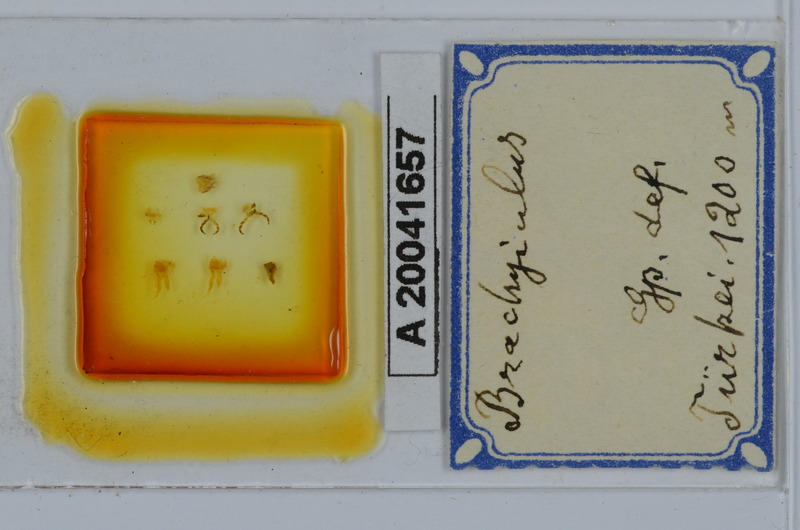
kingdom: Animalia
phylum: Arthropoda
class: Diplopoda
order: Julida
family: Julidae
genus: Brachyiulus
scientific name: Brachyiulus
